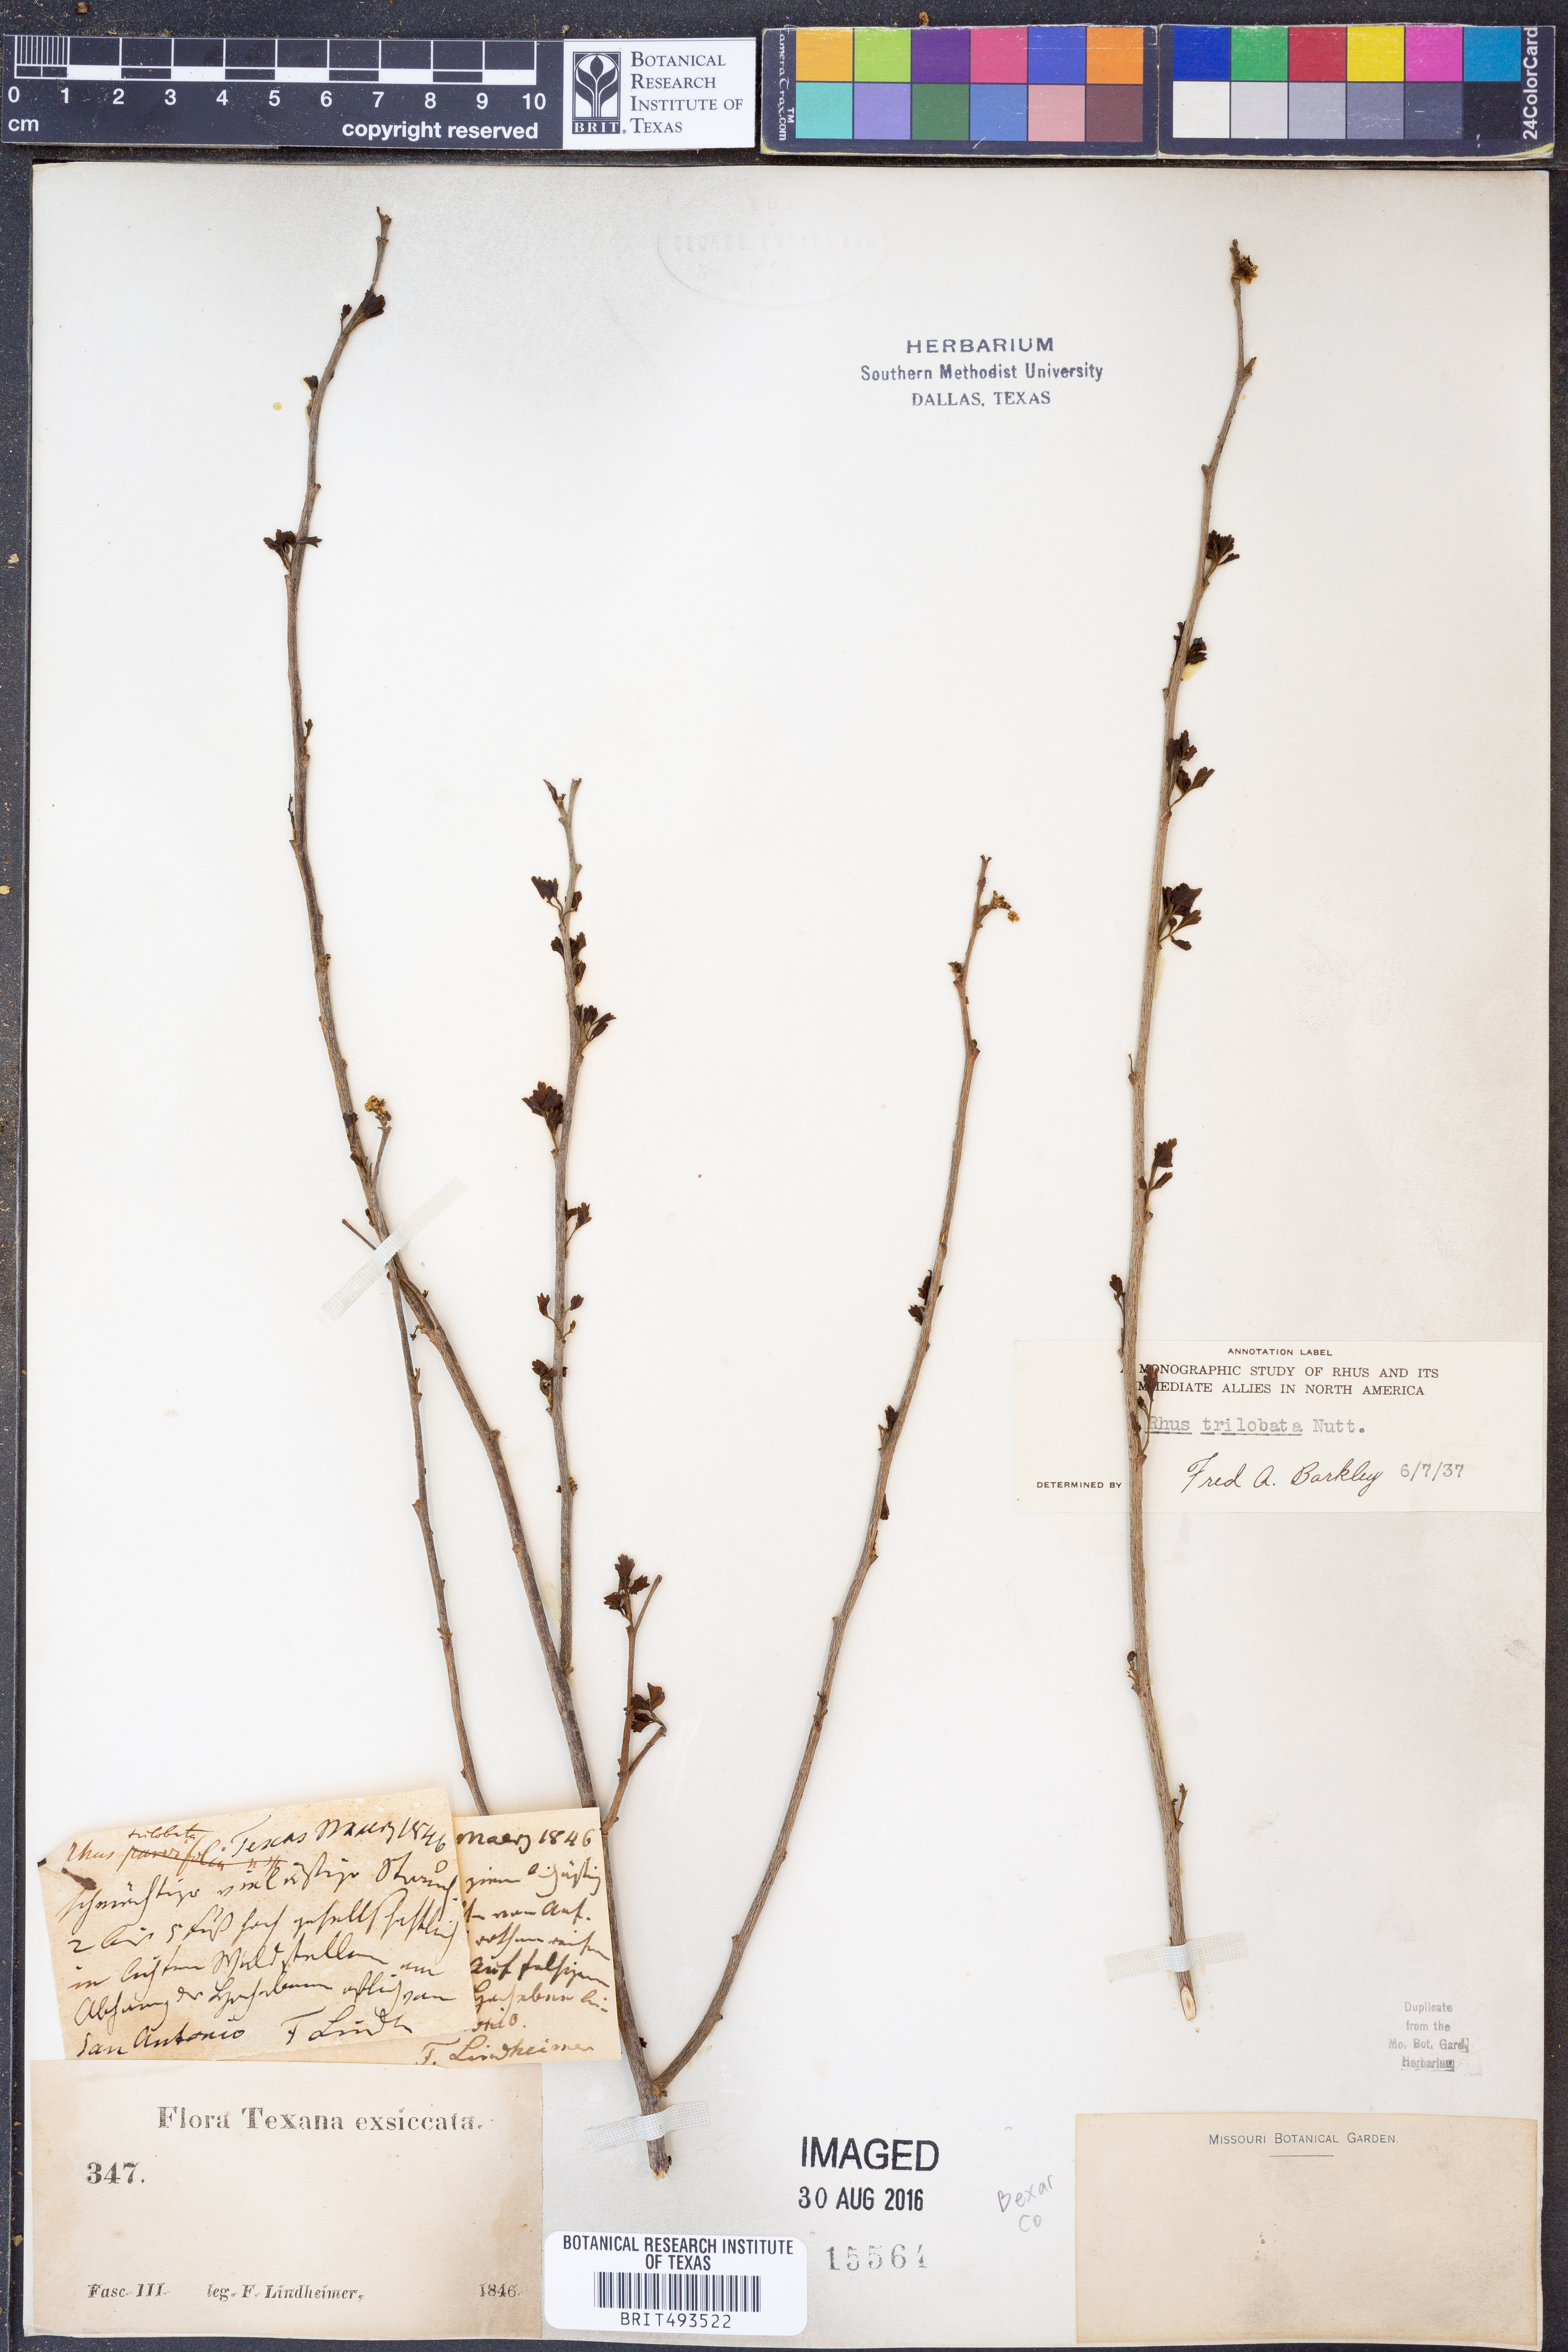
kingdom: Plantae
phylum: Tracheophyta
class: Magnoliopsida
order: Sapindales
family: Anacardiaceae
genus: Rhus
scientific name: Rhus trilobata
